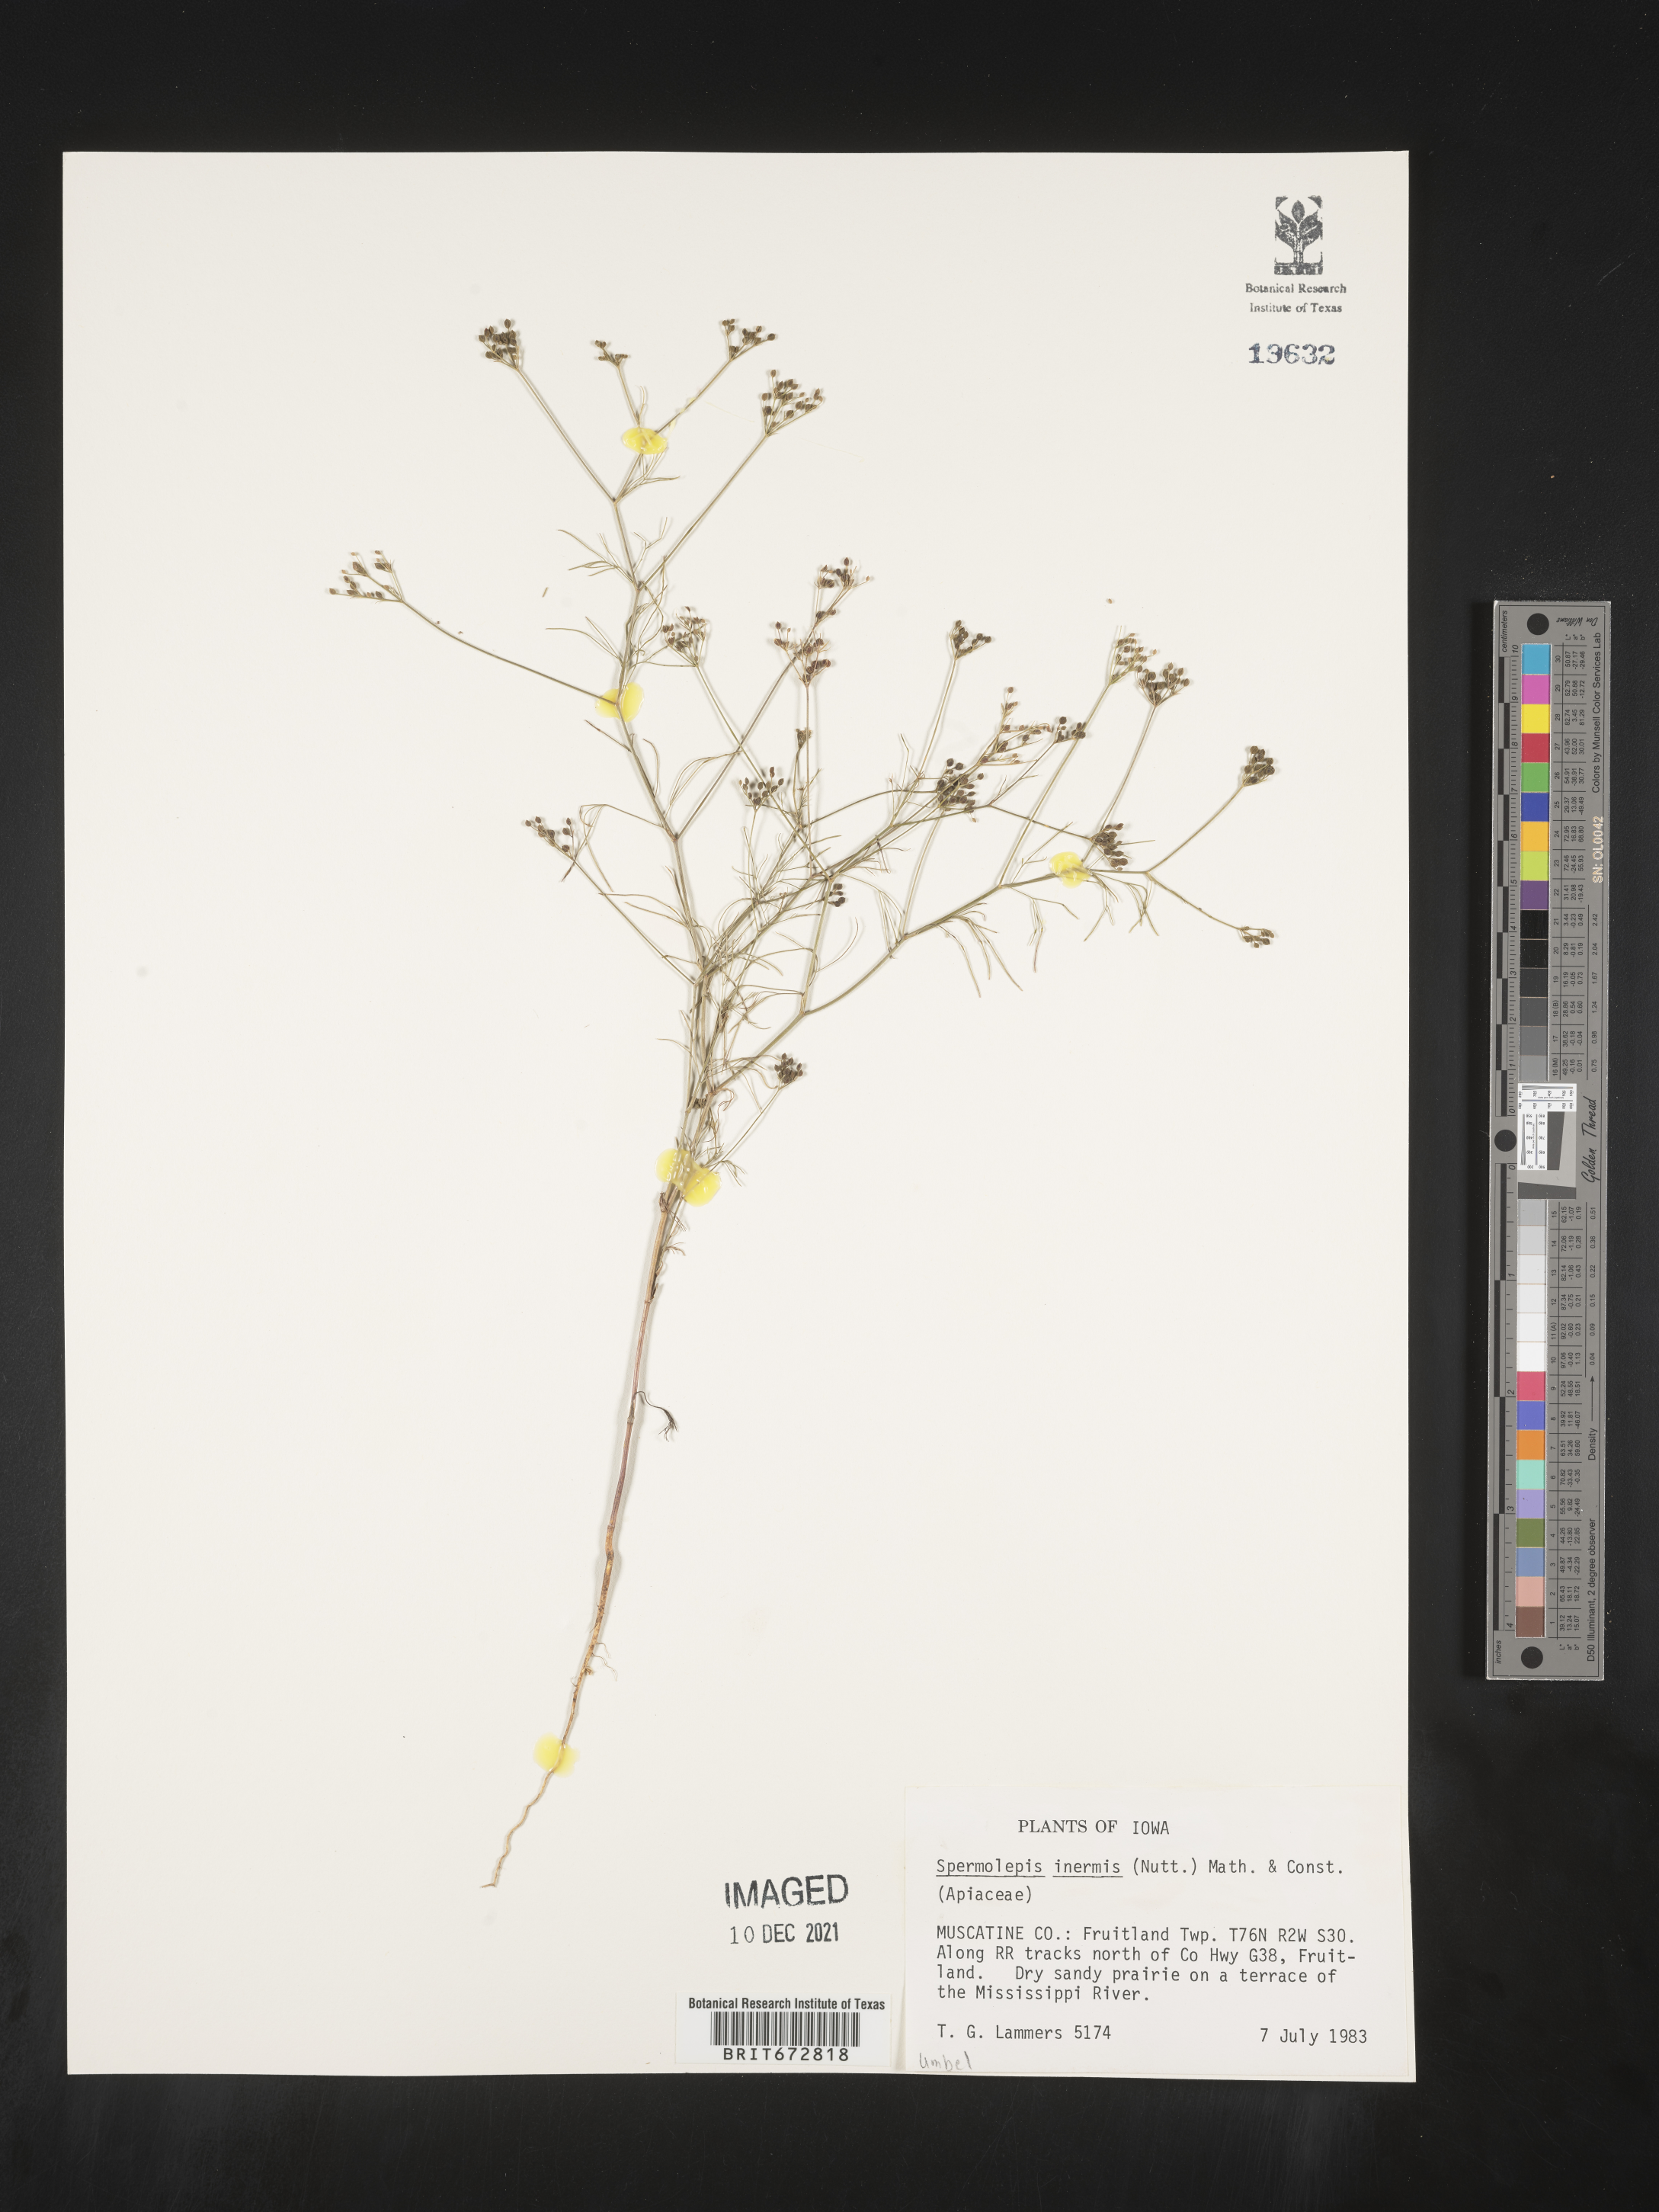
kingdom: Plantae
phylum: Tracheophyta
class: Magnoliopsida
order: Apiales
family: Apiaceae
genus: Spermolepis
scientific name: Spermolepis inermis
